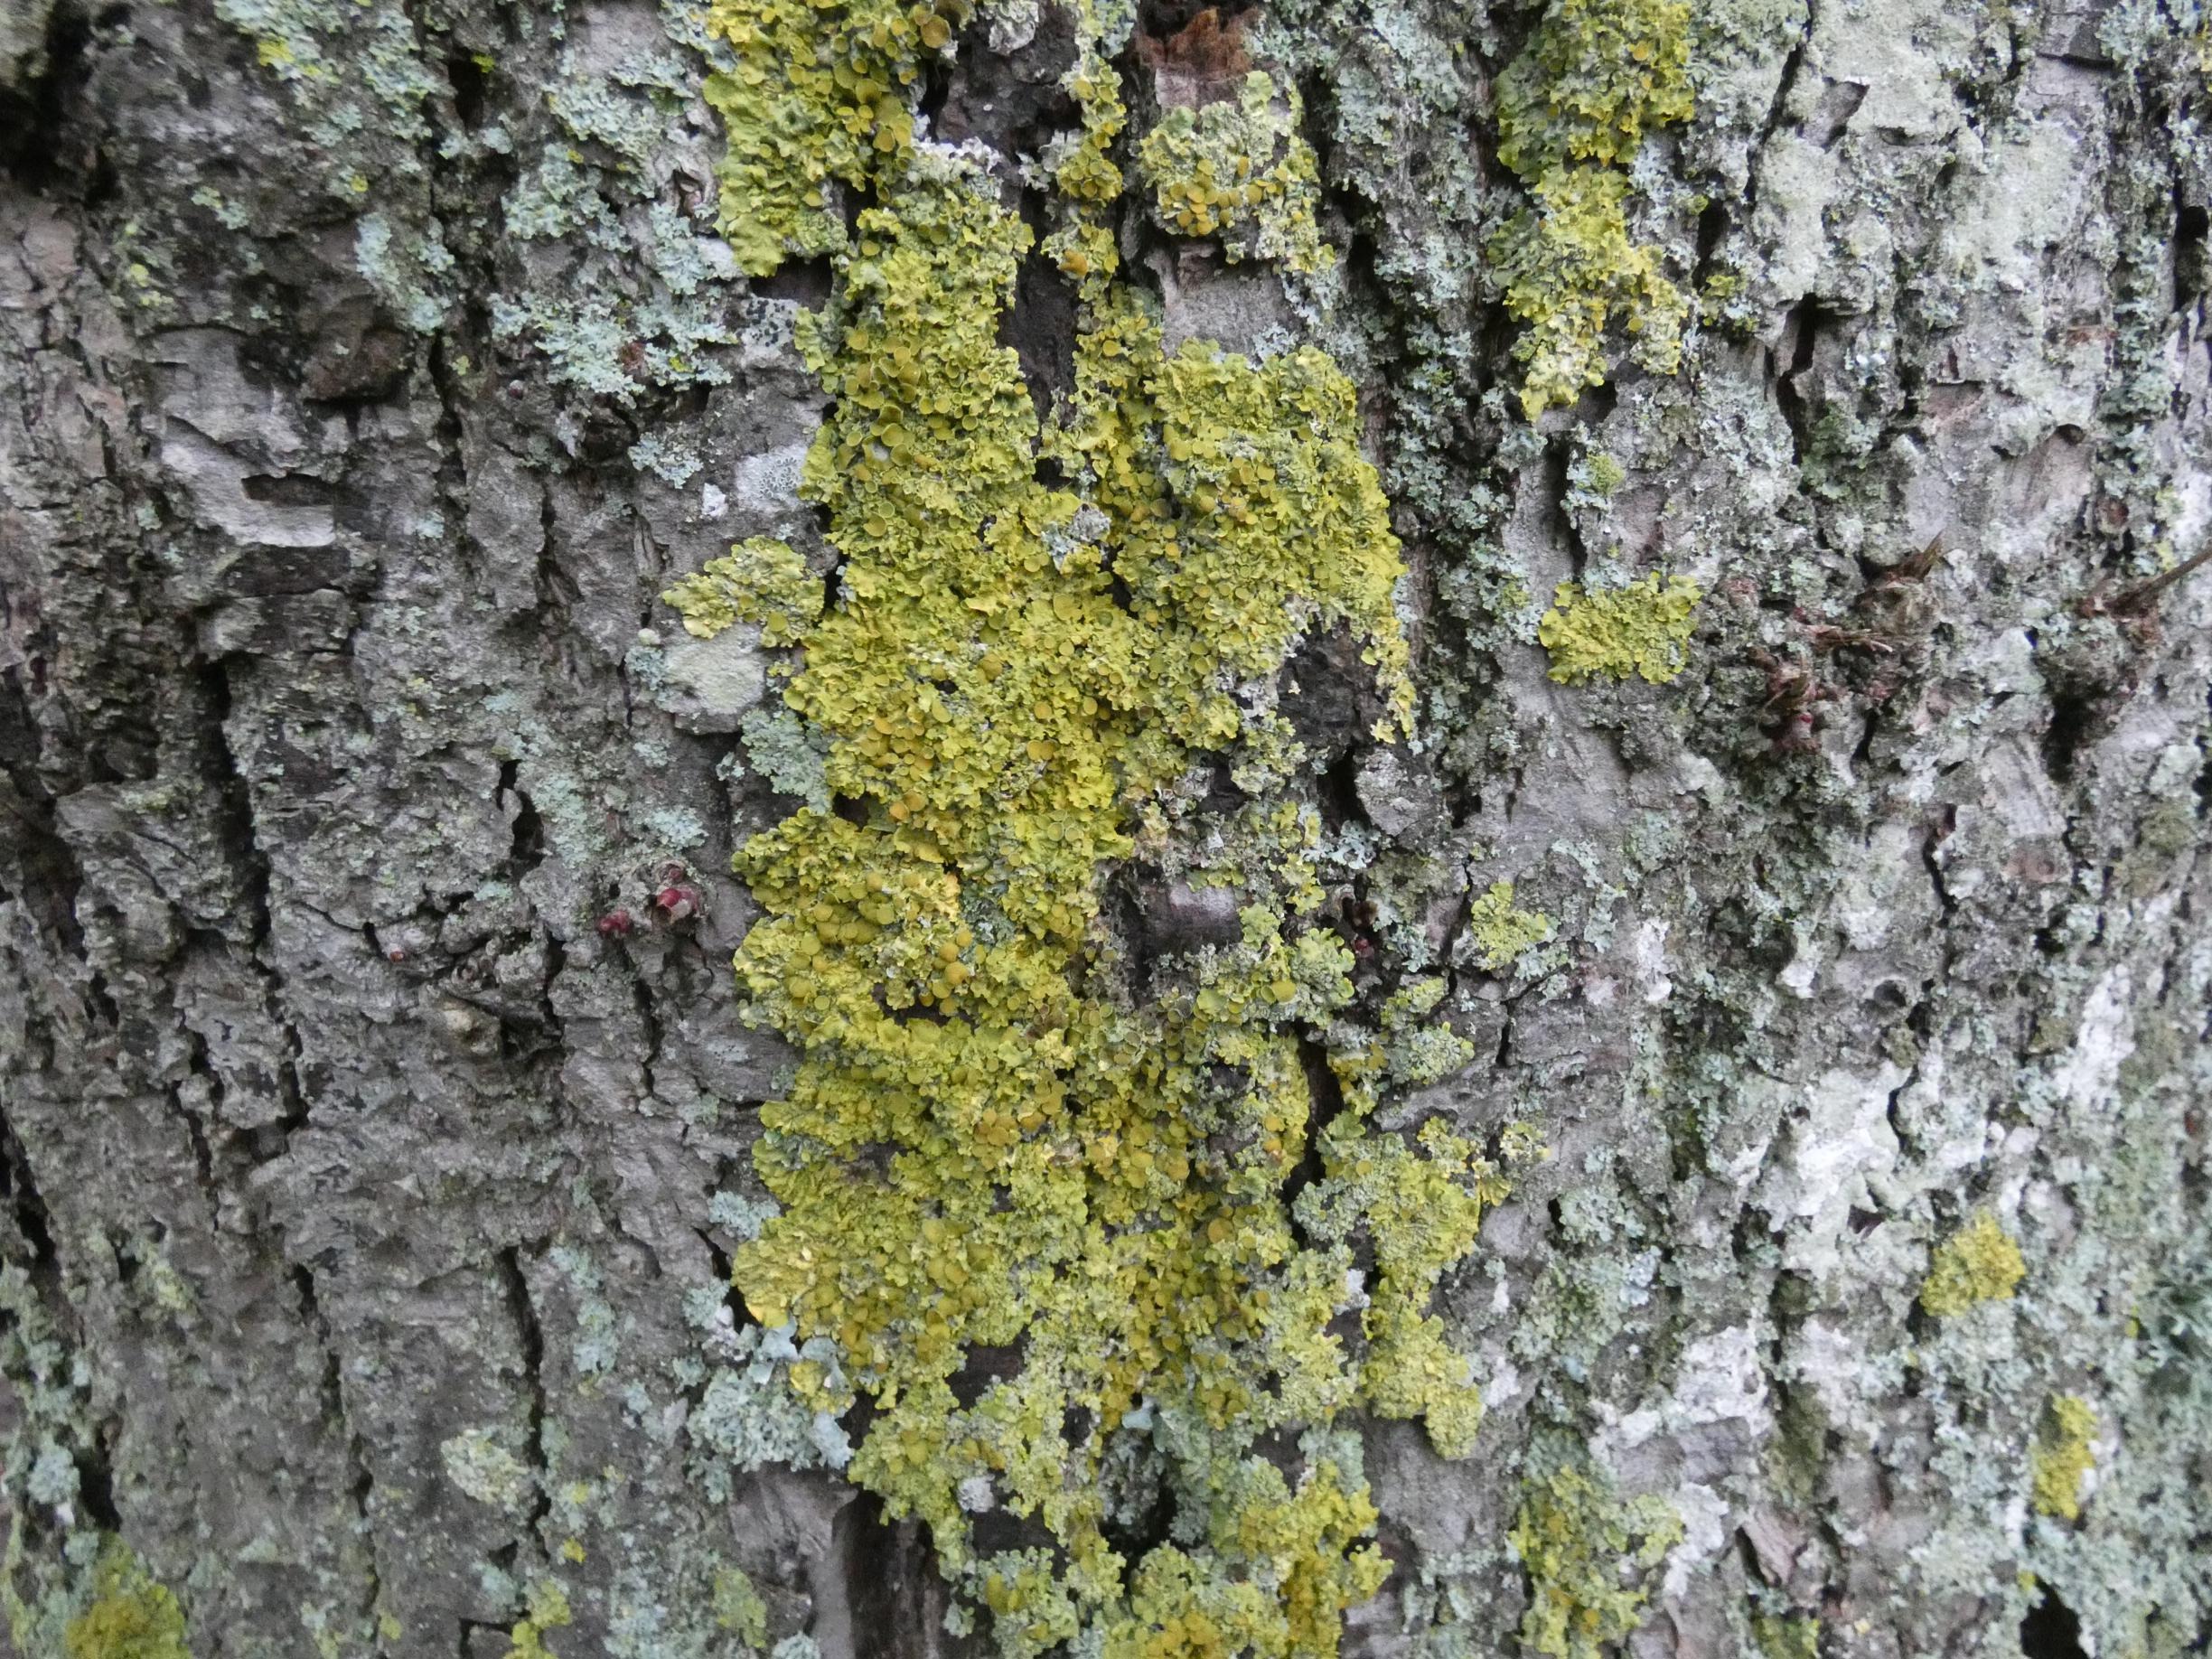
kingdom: Fungi
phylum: Ascomycota
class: Lecanoromycetes
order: Teloschistales
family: Teloschistaceae
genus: Xanthoria
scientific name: Xanthoria parietina
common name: Almindelig væggelav
